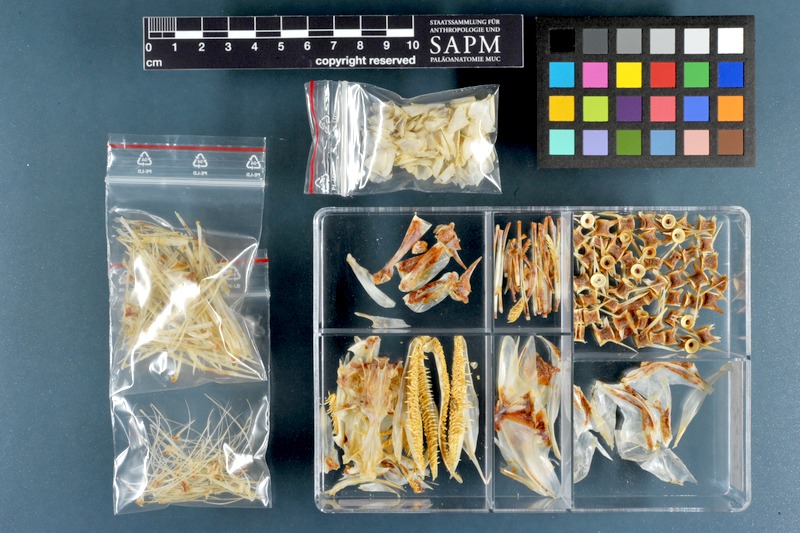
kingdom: Animalia
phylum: Chordata
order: Aulopiformes
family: Synodontidae
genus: Saurida
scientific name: Saurida tumbil
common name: Greater lizardfish
